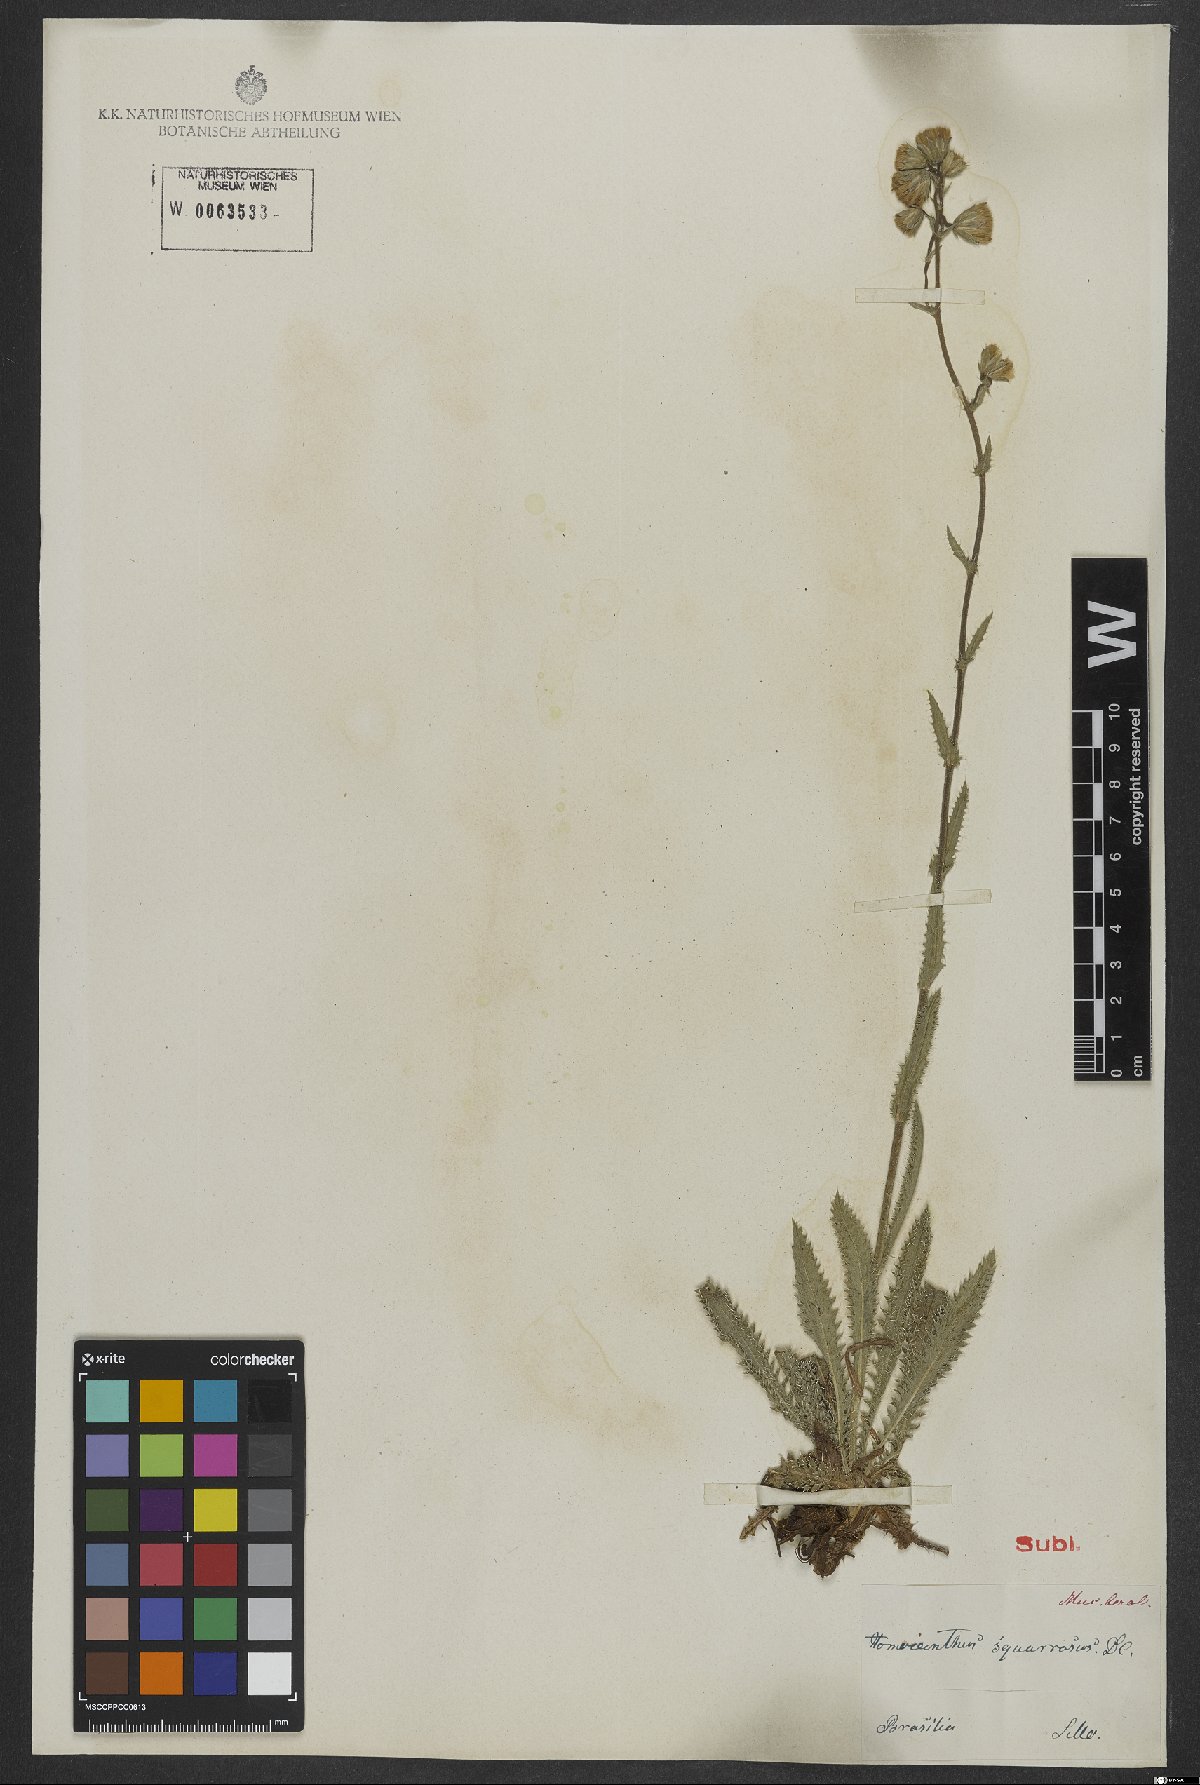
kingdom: Plantae
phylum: Tracheophyta
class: Magnoliopsida
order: Asterales
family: Asteraceae
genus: Perezia
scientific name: Perezia squarrosa
